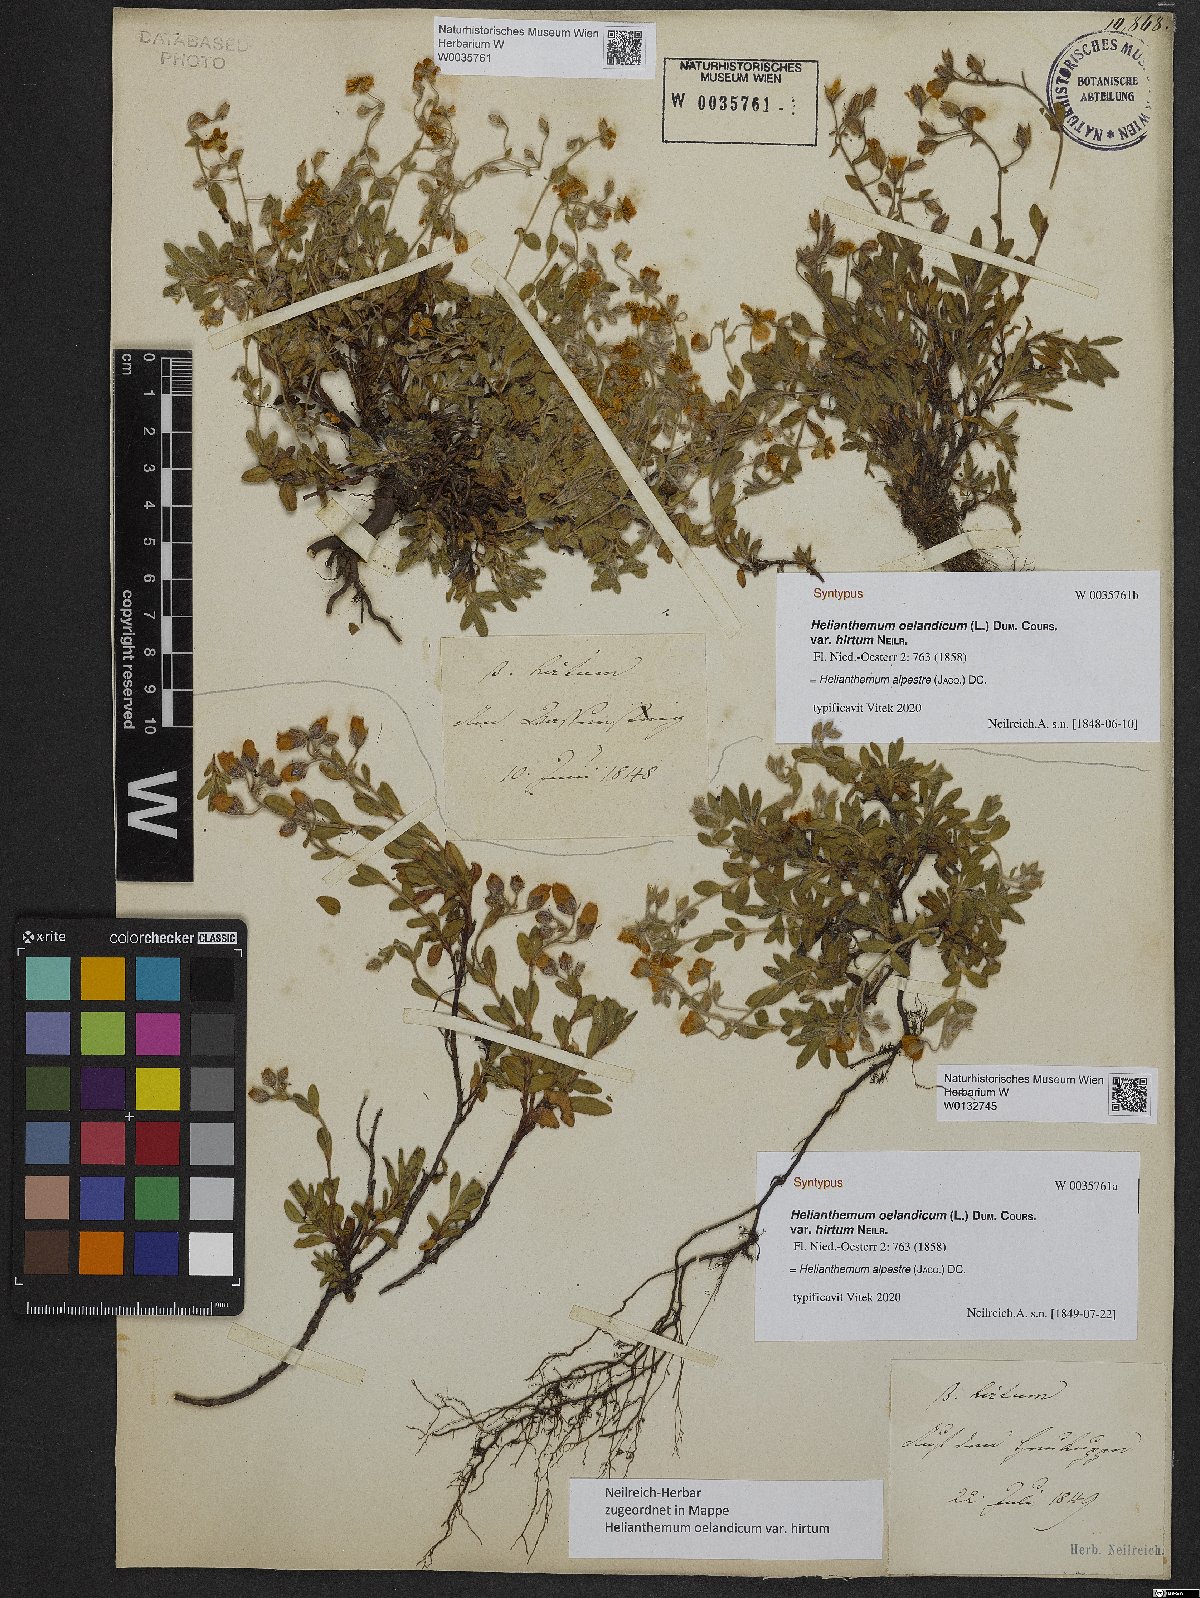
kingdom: Plantae
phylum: Tracheophyta
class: Magnoliopsida
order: Malvales
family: Cistaceae
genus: Helianthemum
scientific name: Helianthemum alpestre
